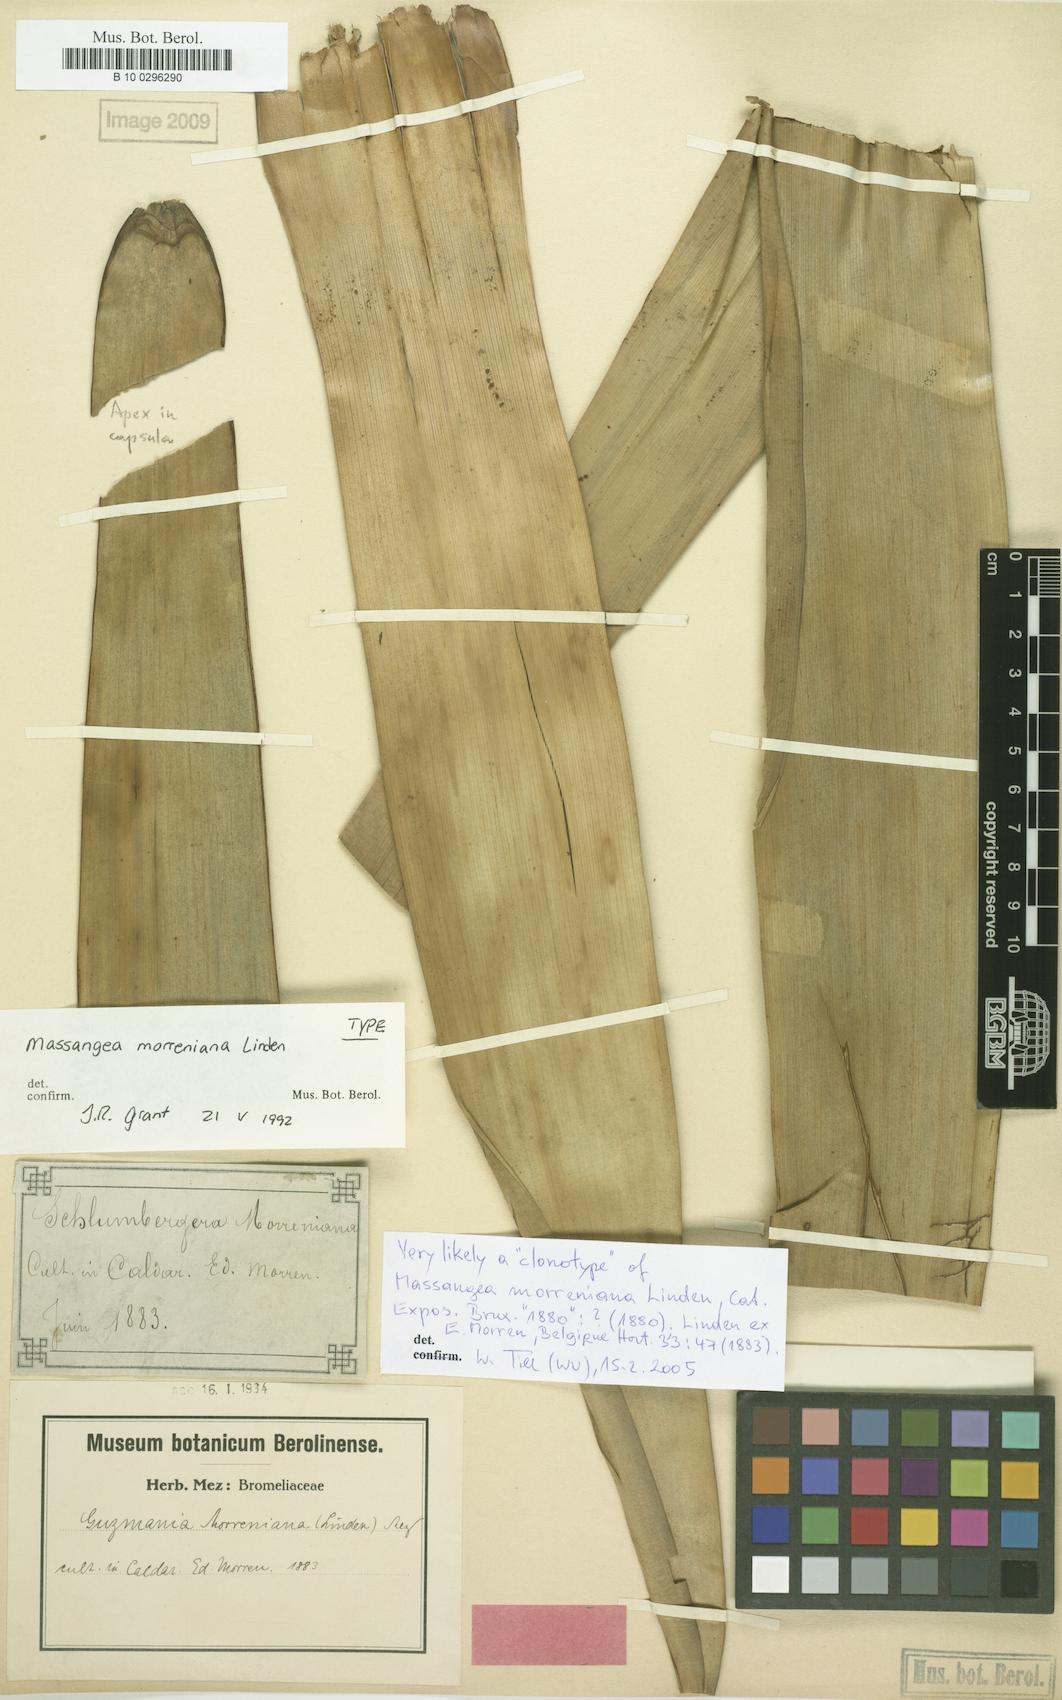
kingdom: Plantae
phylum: Tracheophyta
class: Liliopsida
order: Poales
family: Bromeliaceae
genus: Guzmania
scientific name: Guzmania morreniana
